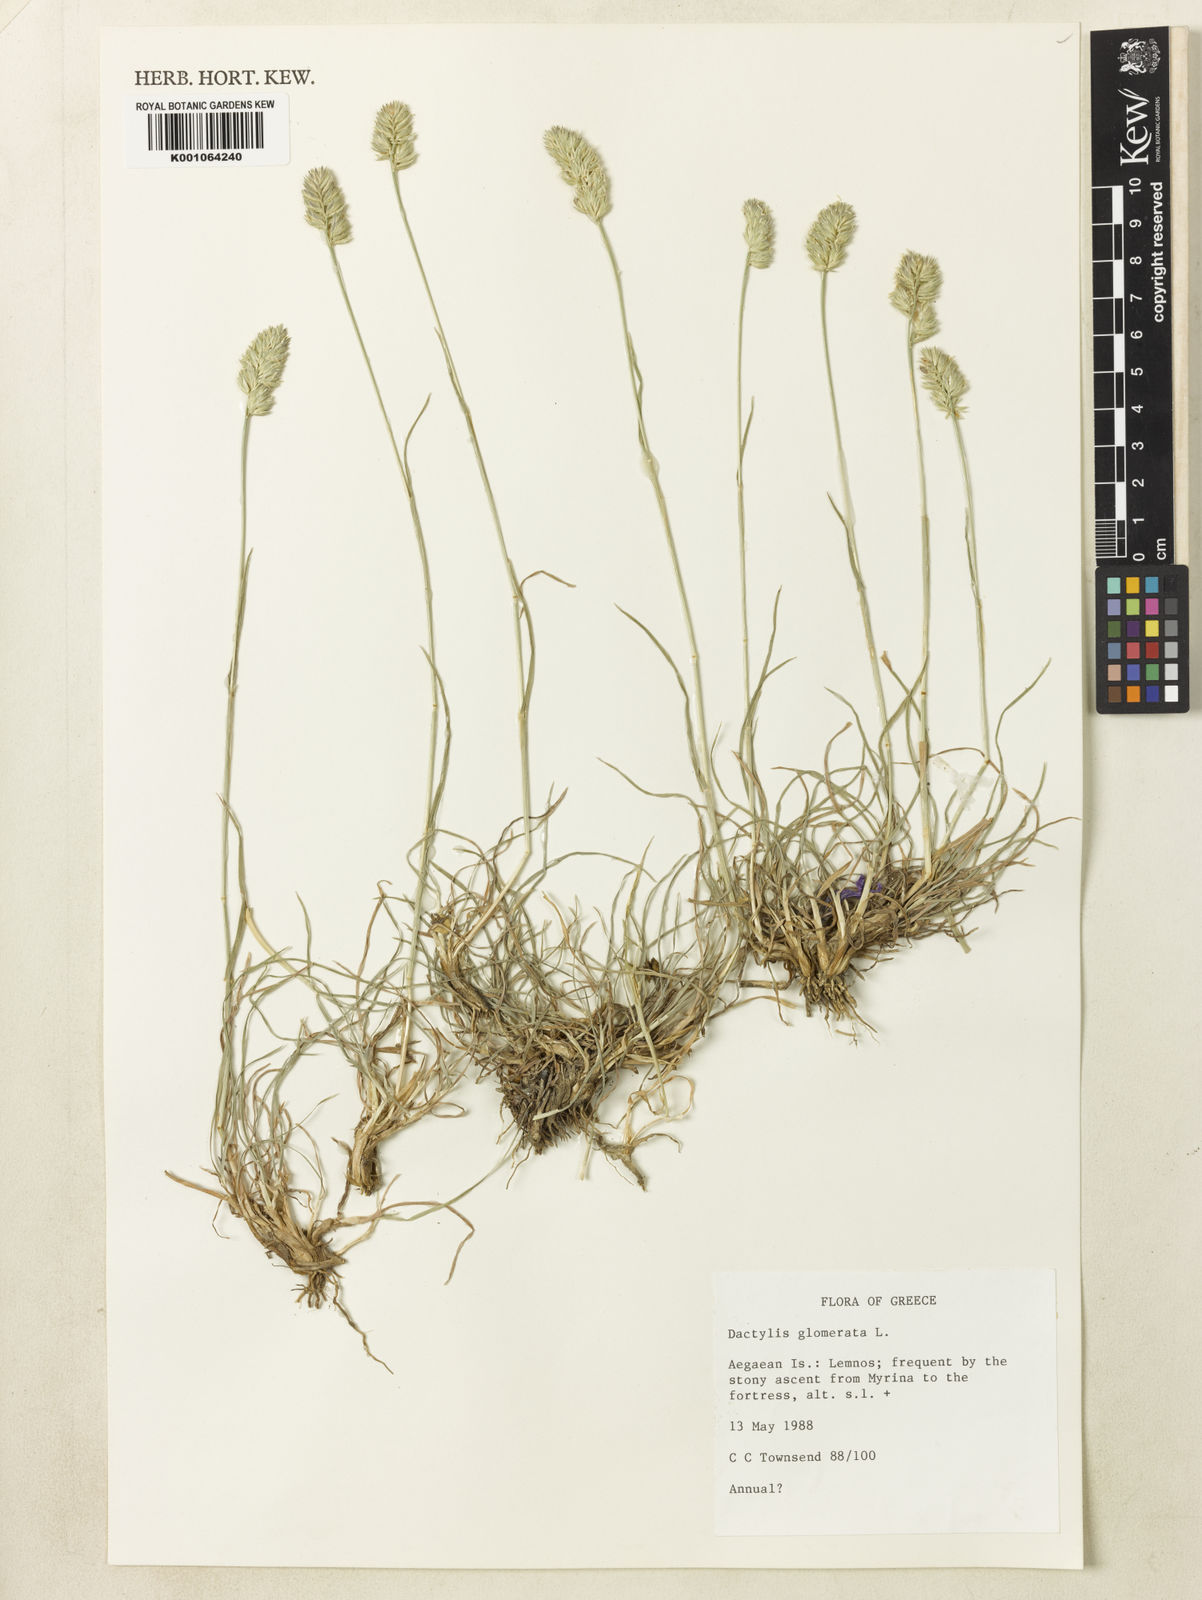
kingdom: Plantae
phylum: Tracheophyta
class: Liliopsida
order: Poales
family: Poaceae
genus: Dactylis
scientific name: Dactylis glomerata
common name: Orchardgrass
